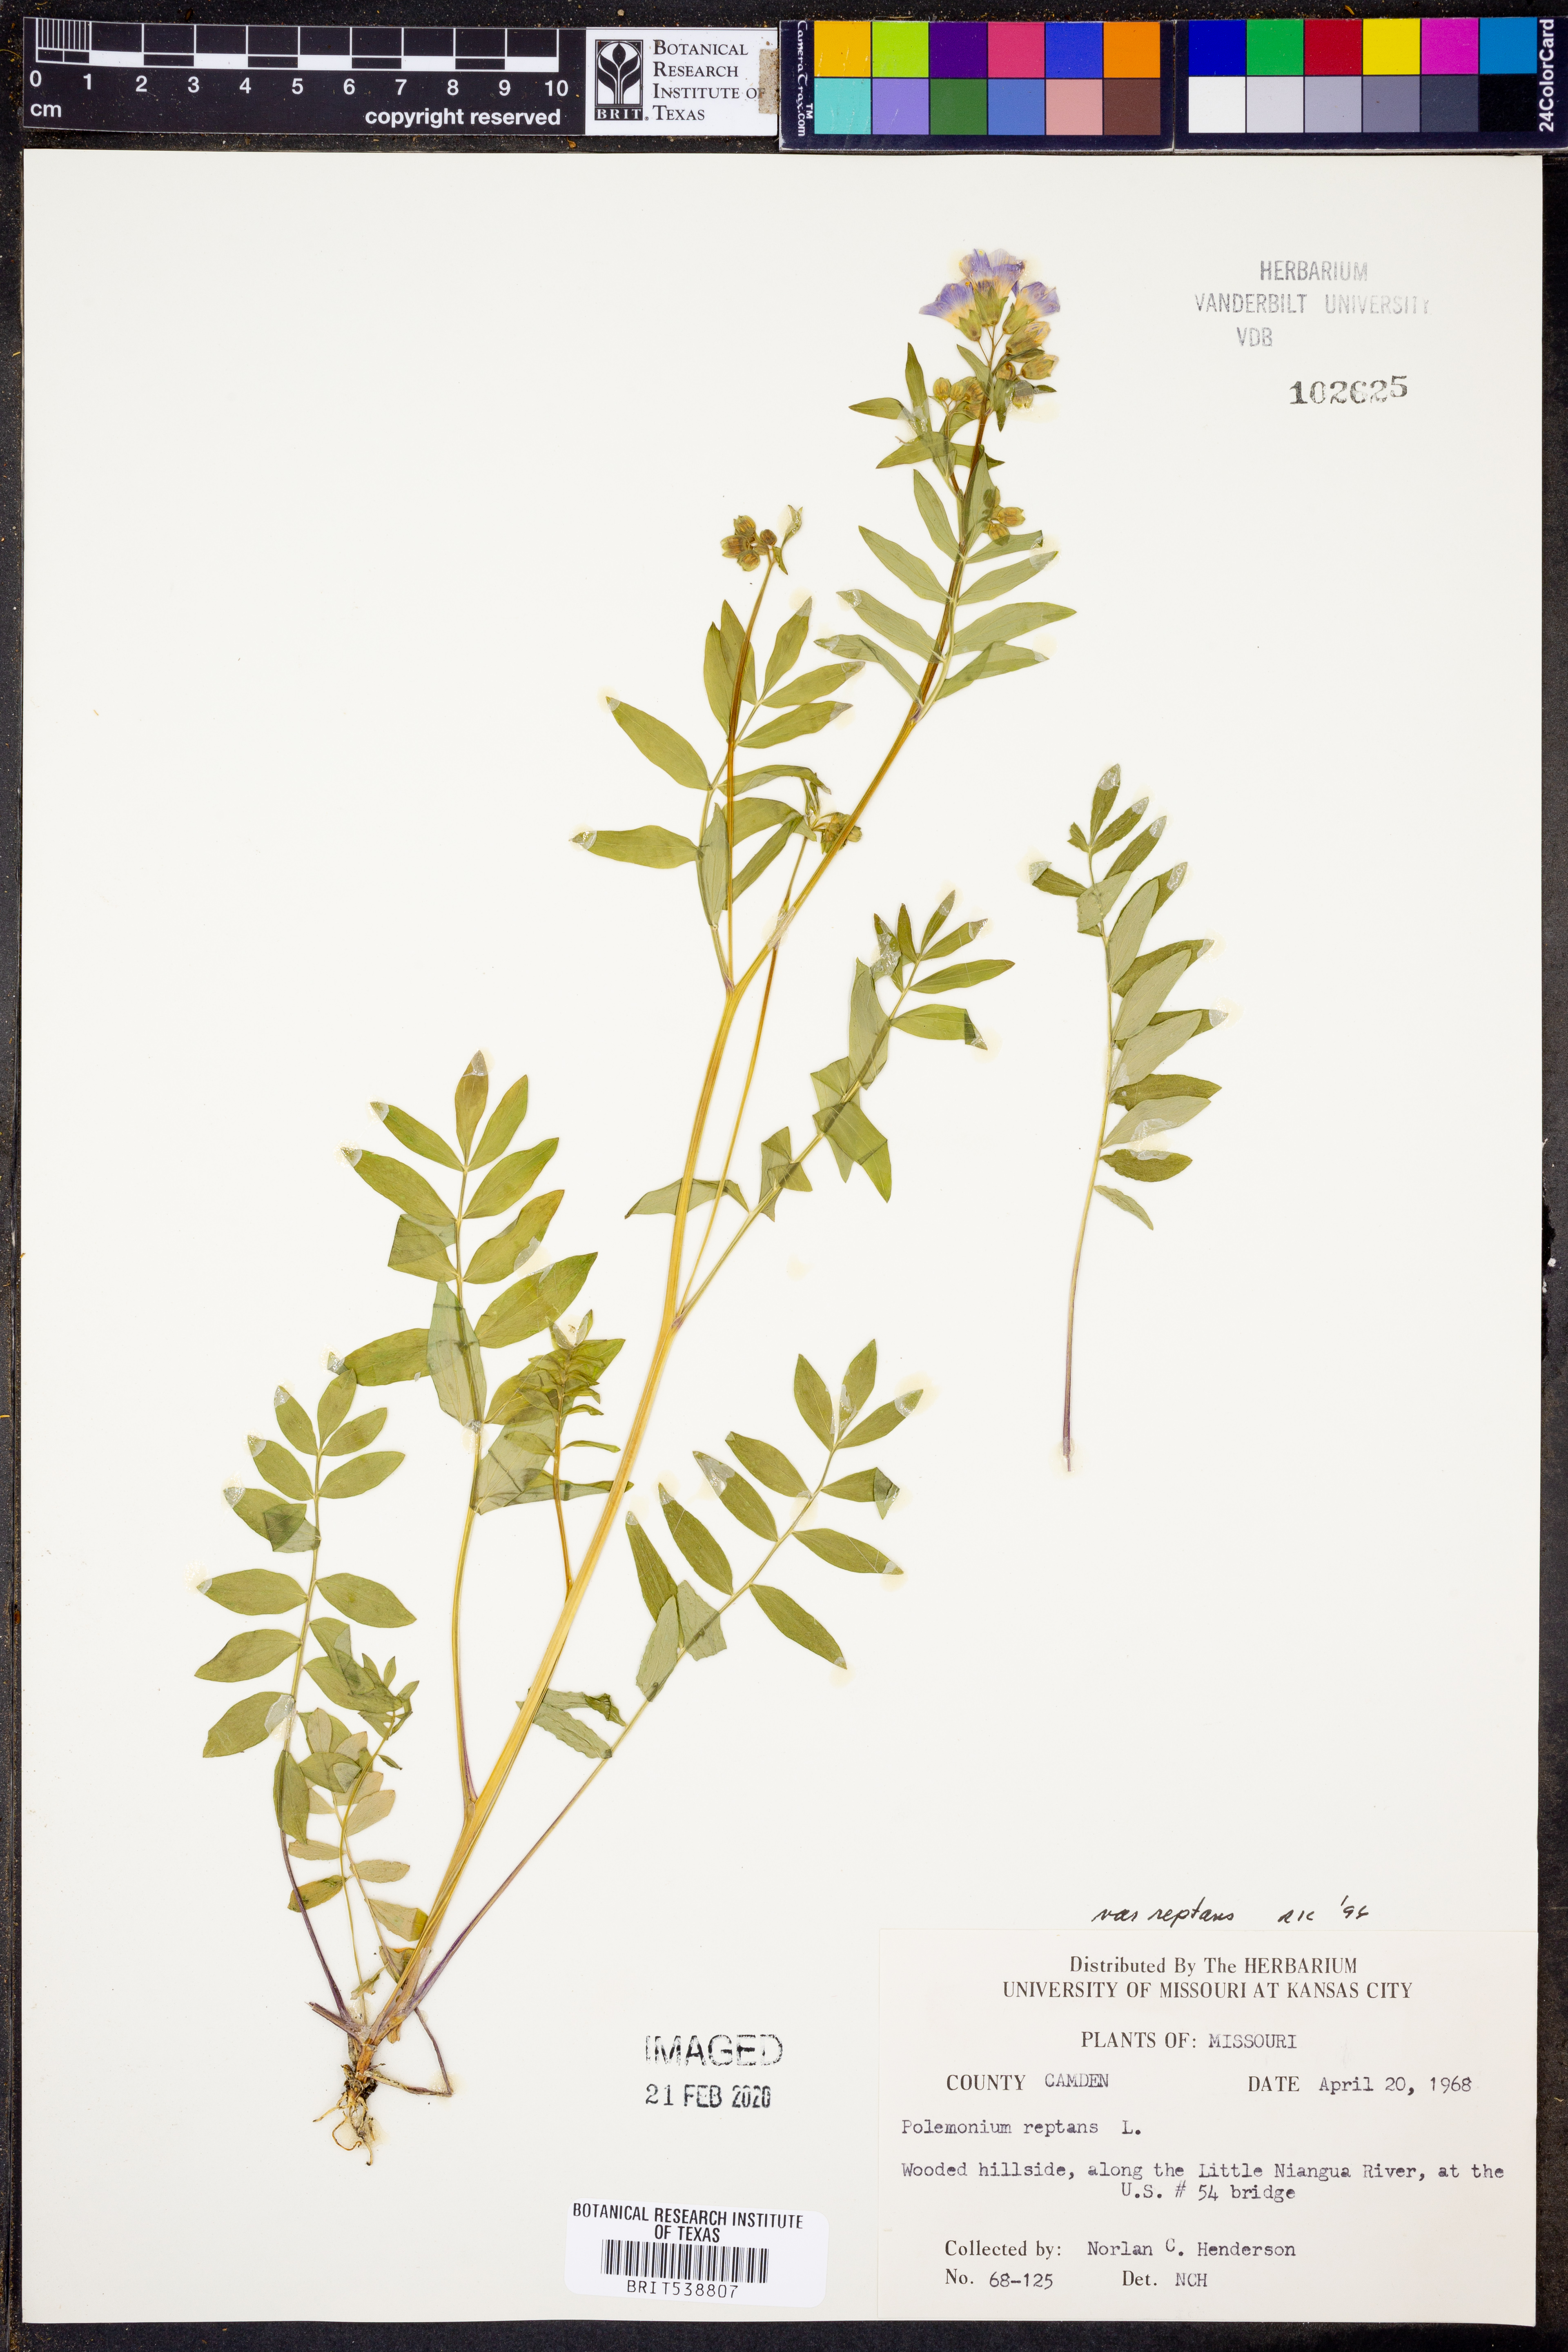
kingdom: Plantae
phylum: Tracheophyta
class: Magnoliopsida
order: Ericales
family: Polemoniaceae
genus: Polemonium
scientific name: Polemonium reptans
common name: Creeping jacob's-ladder
